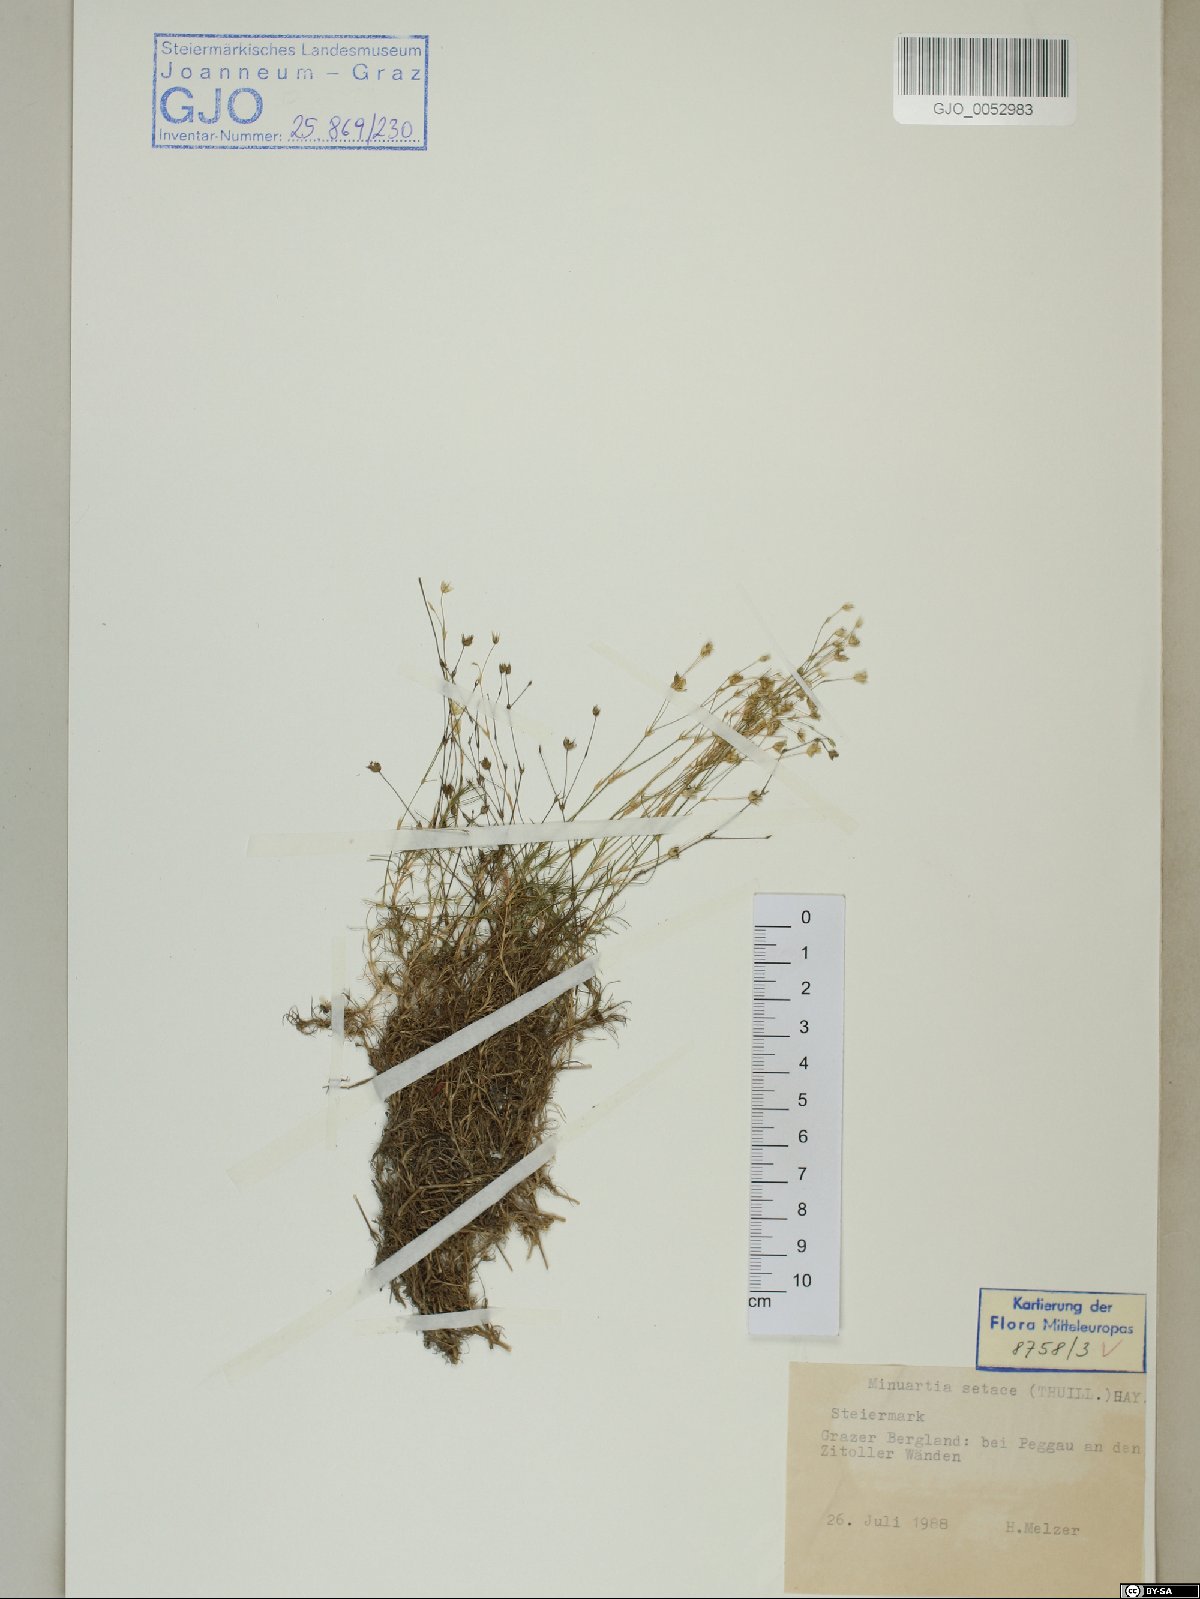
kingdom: Plantae
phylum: Tracheophyta
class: Magnoliopsida
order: Caryophyllales
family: Caryophyllaceae
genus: Minuartia
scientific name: Minuartia setacea
